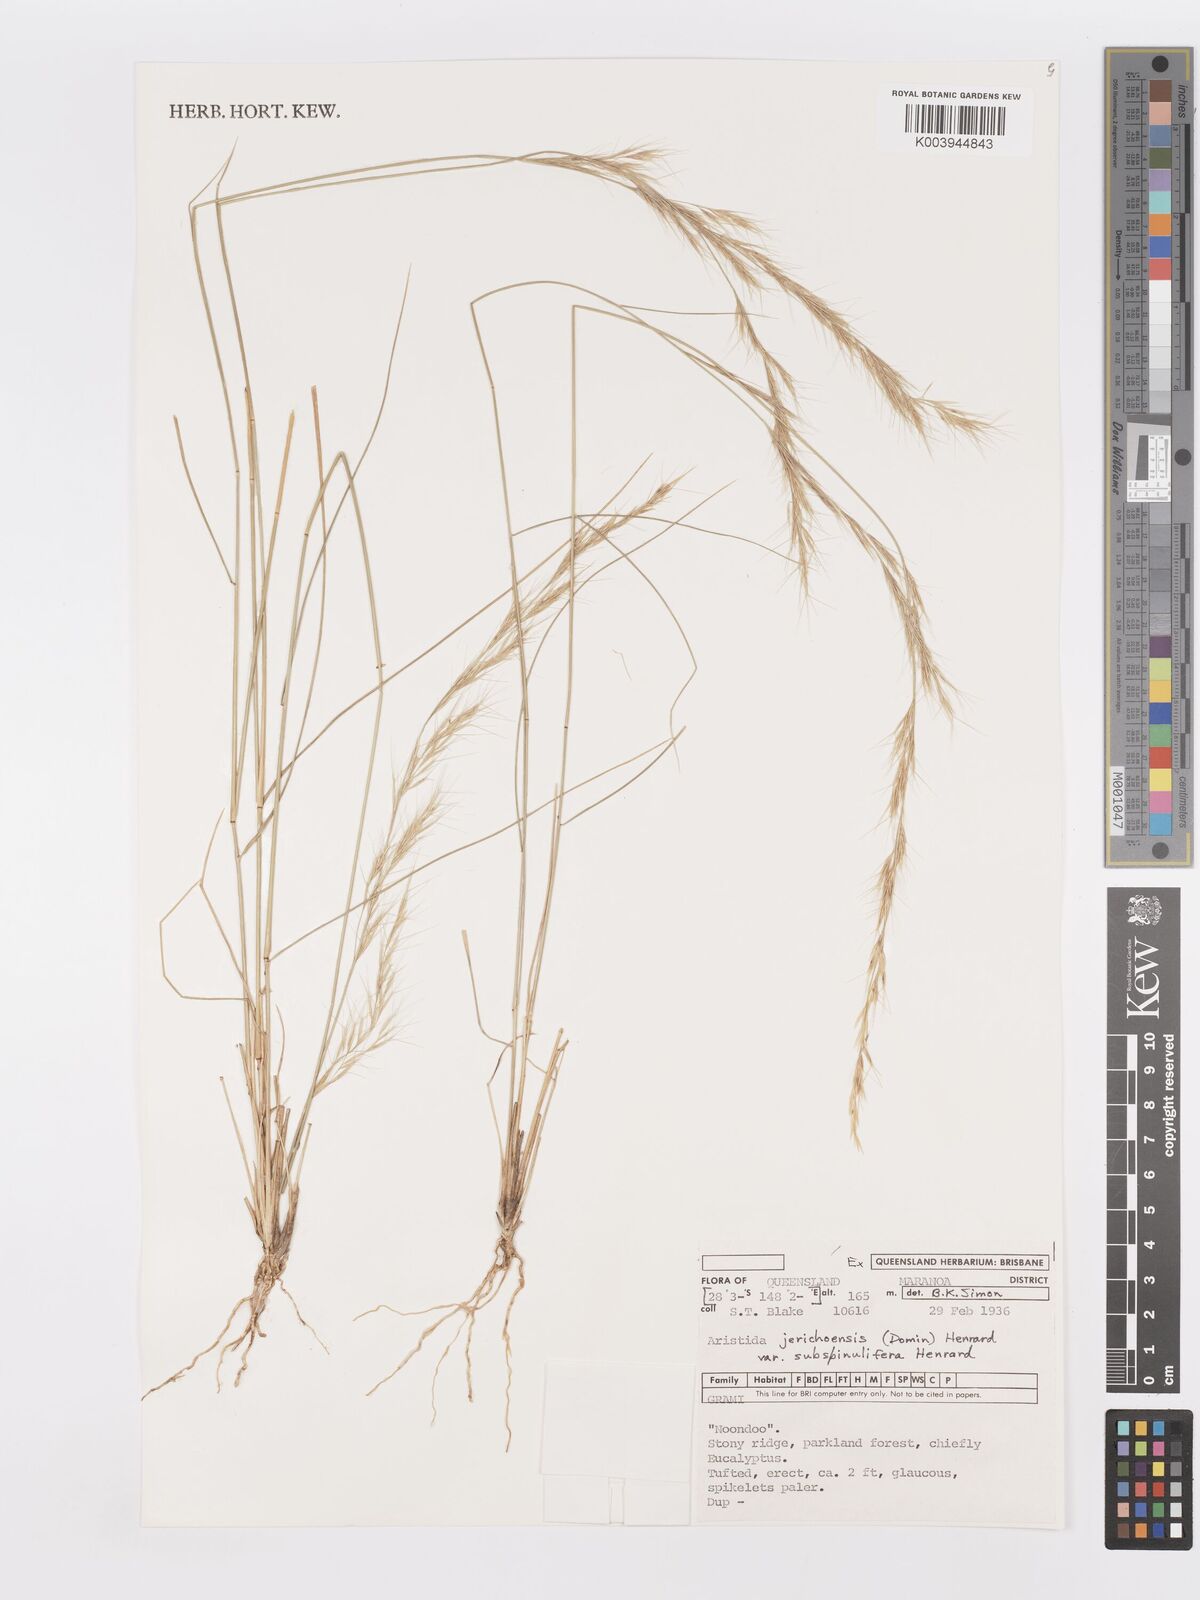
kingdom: Plantae
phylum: Tracheophyta
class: Liliopsida
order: Poales
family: Poaceae
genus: Aristida
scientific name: Aristida jerichoensis
